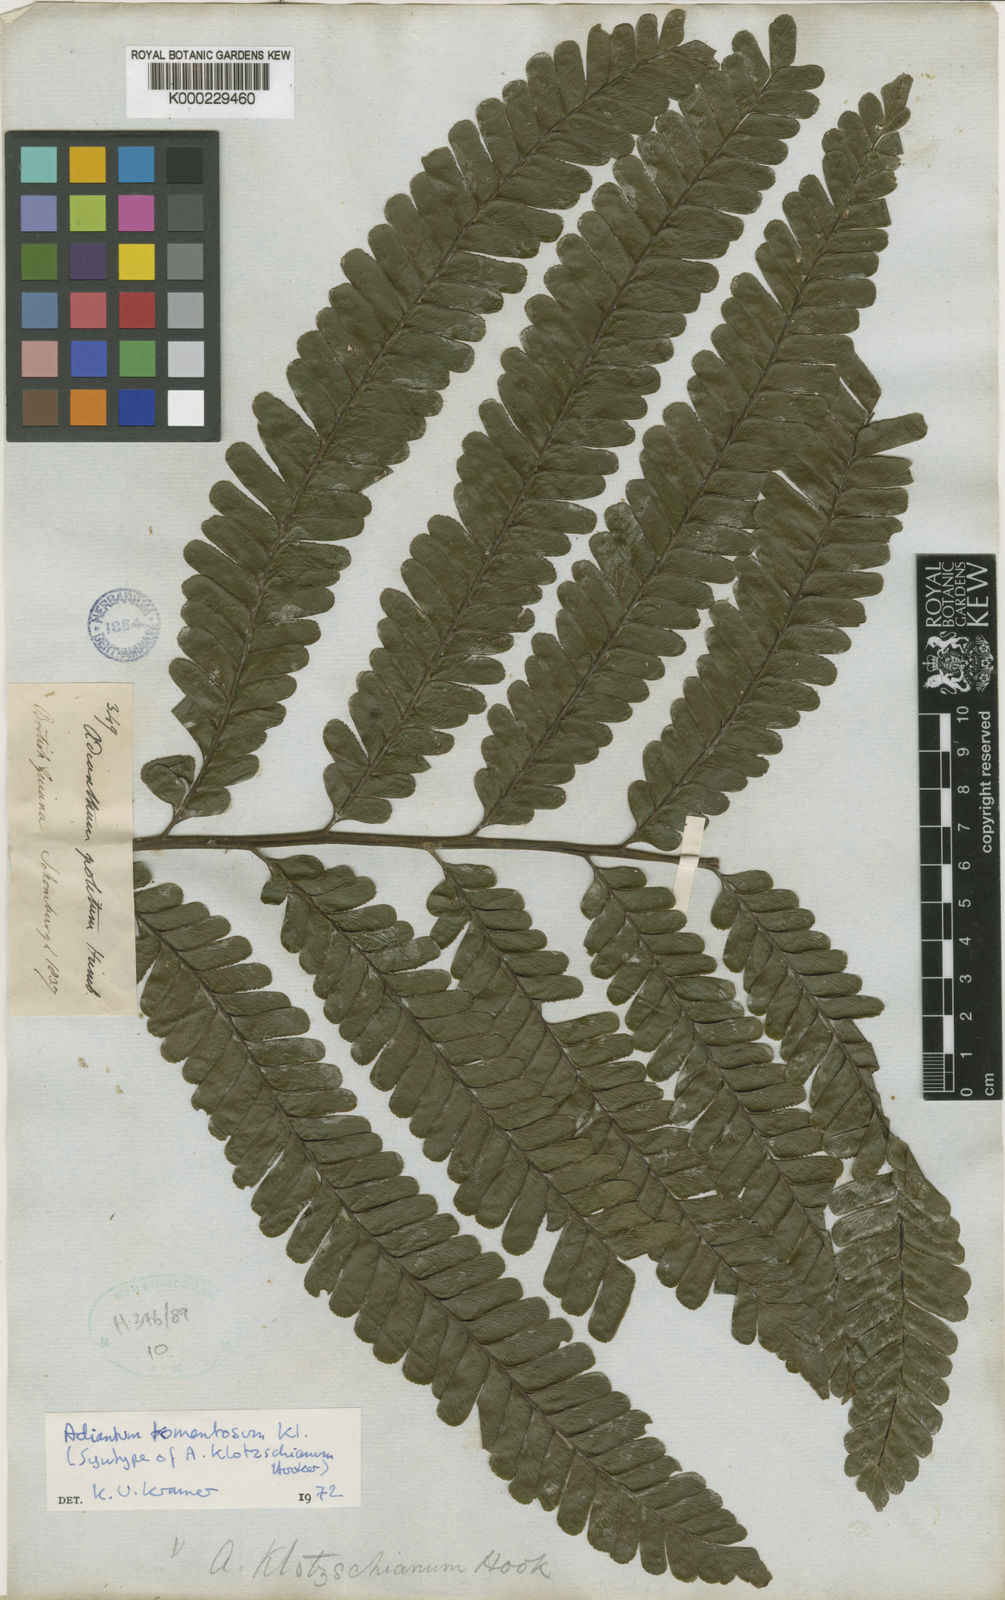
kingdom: Plantae
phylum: Tracheophyta
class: Polypodiopsida
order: Polypodiales
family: Pteridaceae
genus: Adiantum
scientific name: Adiantum tomentosum
